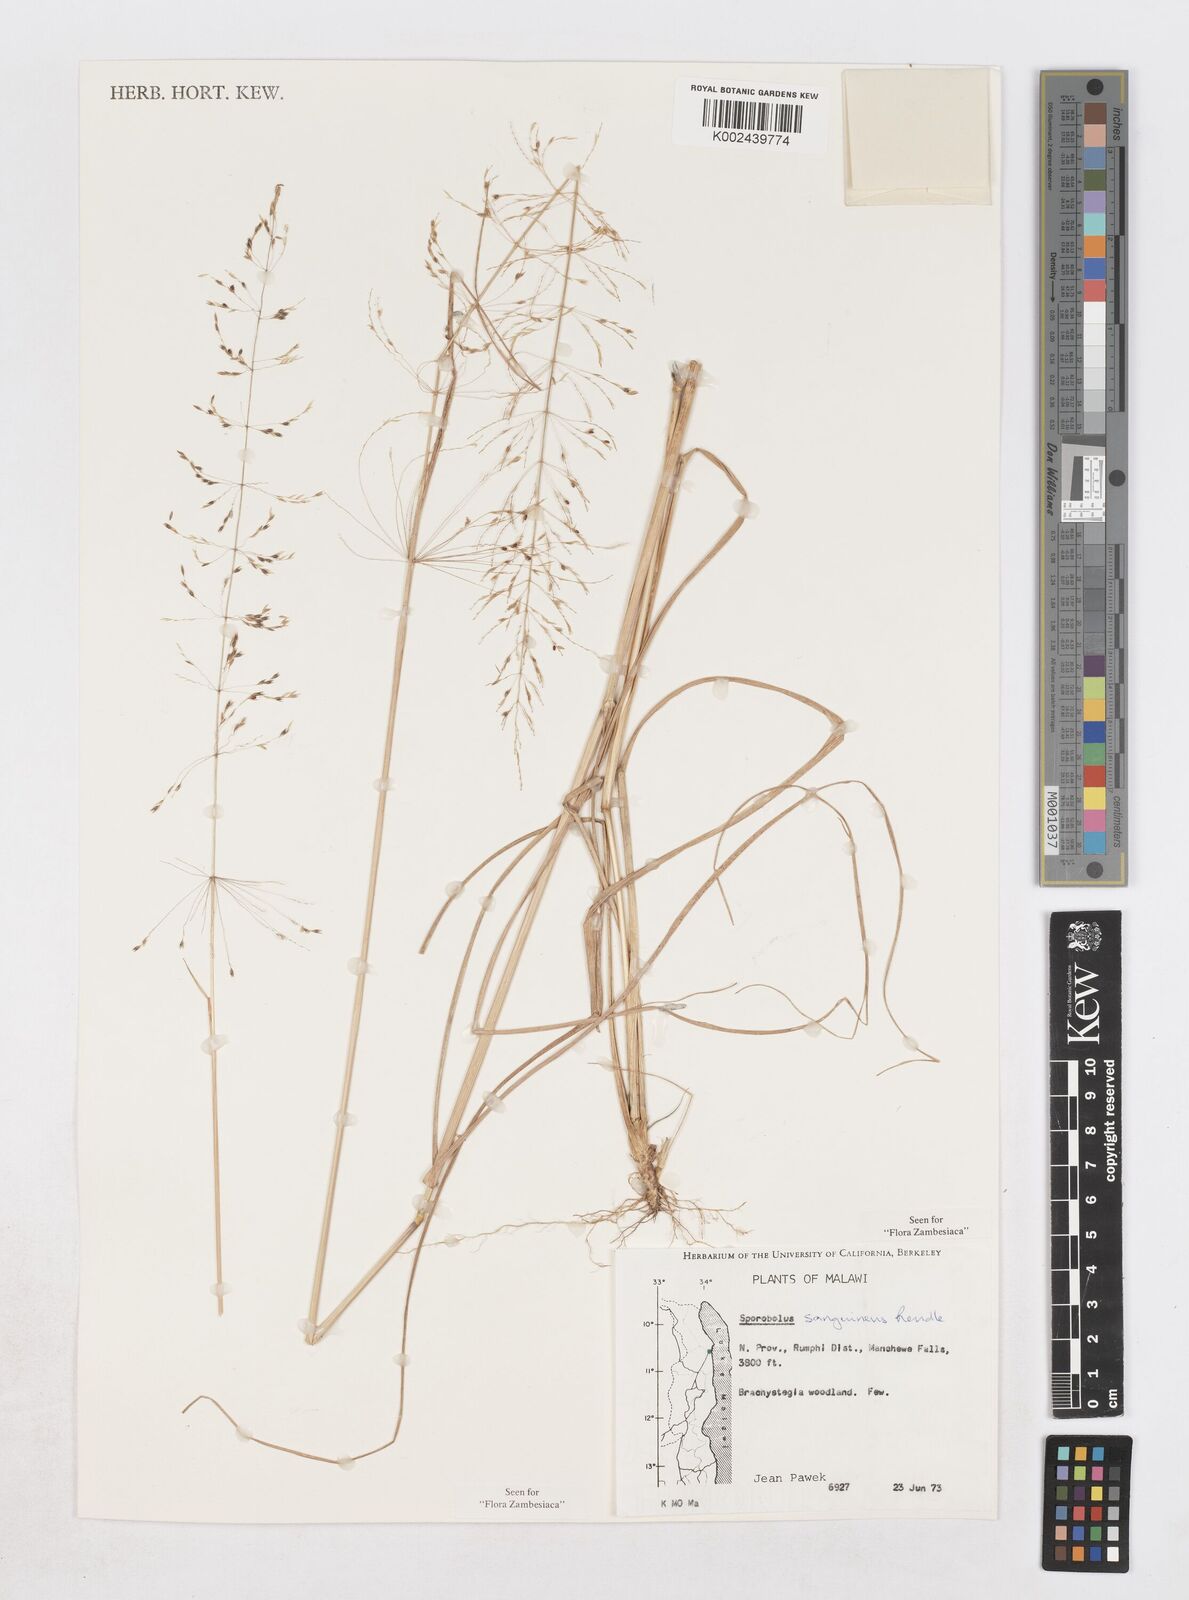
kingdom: Plantae
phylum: Tracheophyta
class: Liliopsida
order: Poales
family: Poaceae
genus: Sporobolus
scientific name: Sporobolus sanguineus
